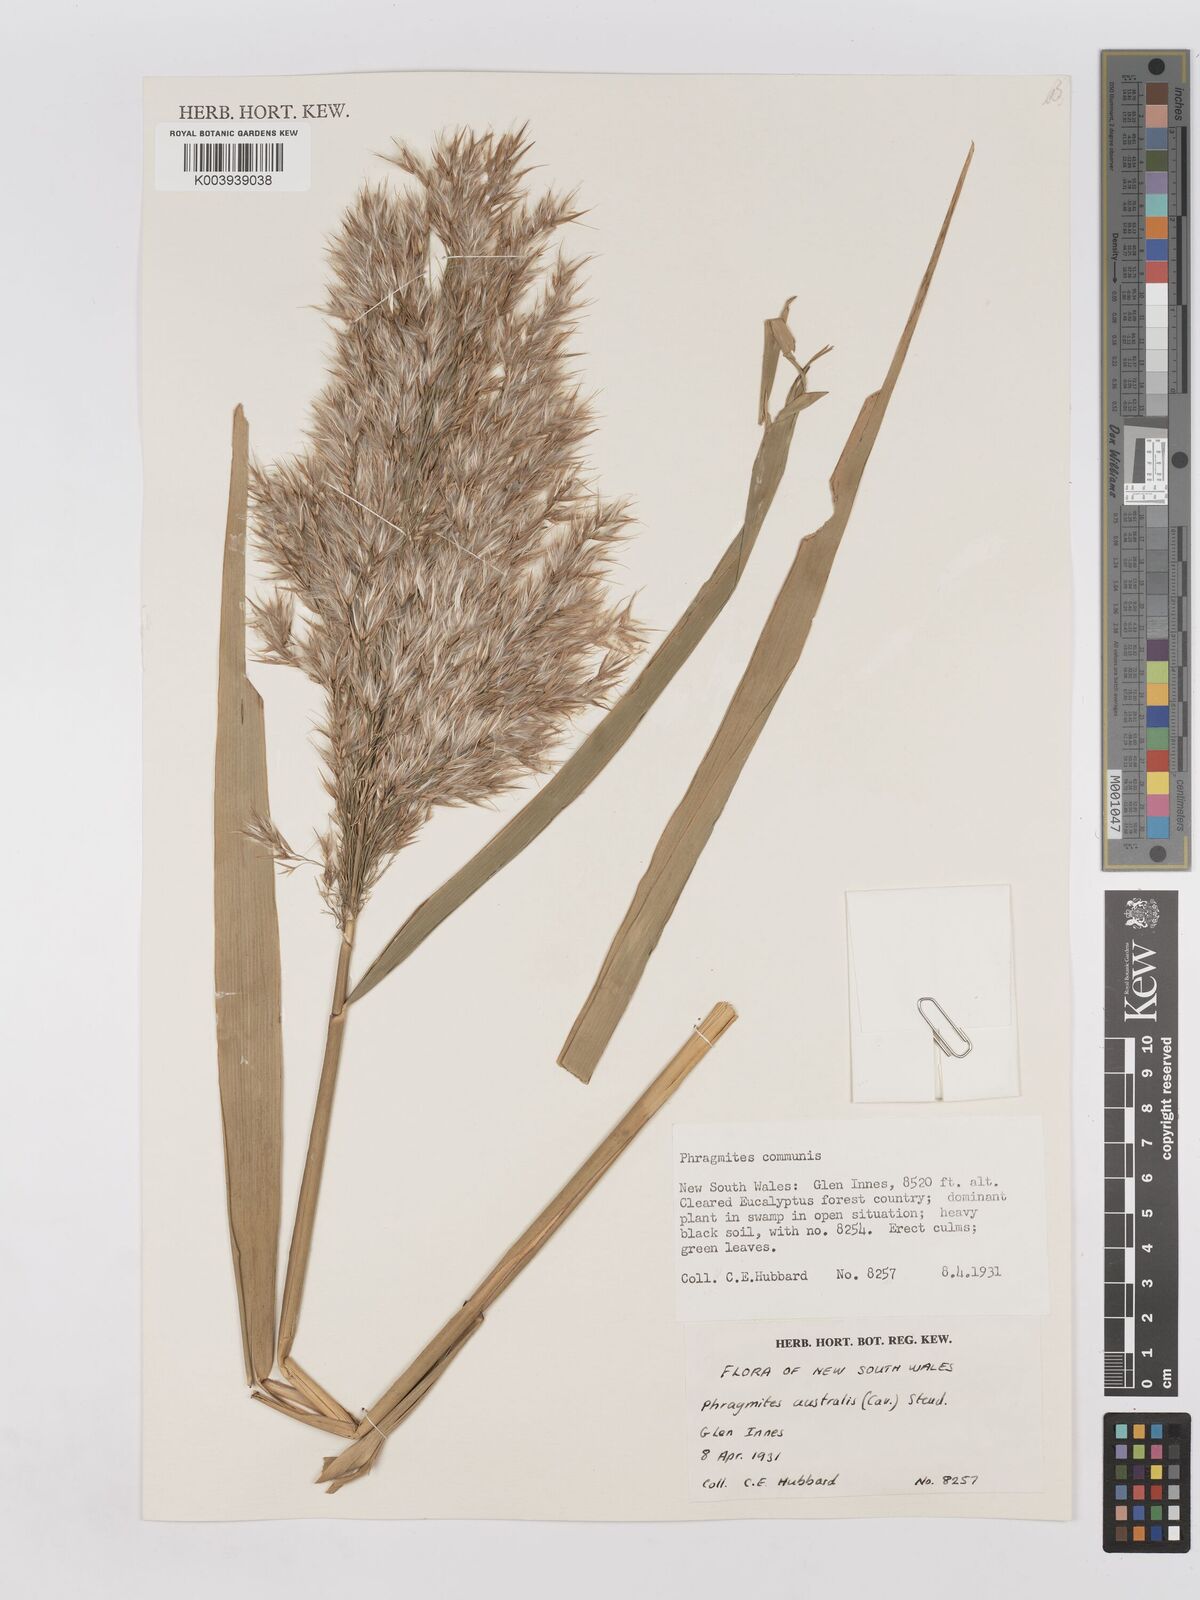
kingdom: Plantae
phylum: Tracheophyta
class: Liliopsida
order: Poales
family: Poaceae
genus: Phragmites
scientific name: Phragmites australis
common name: Common reed
